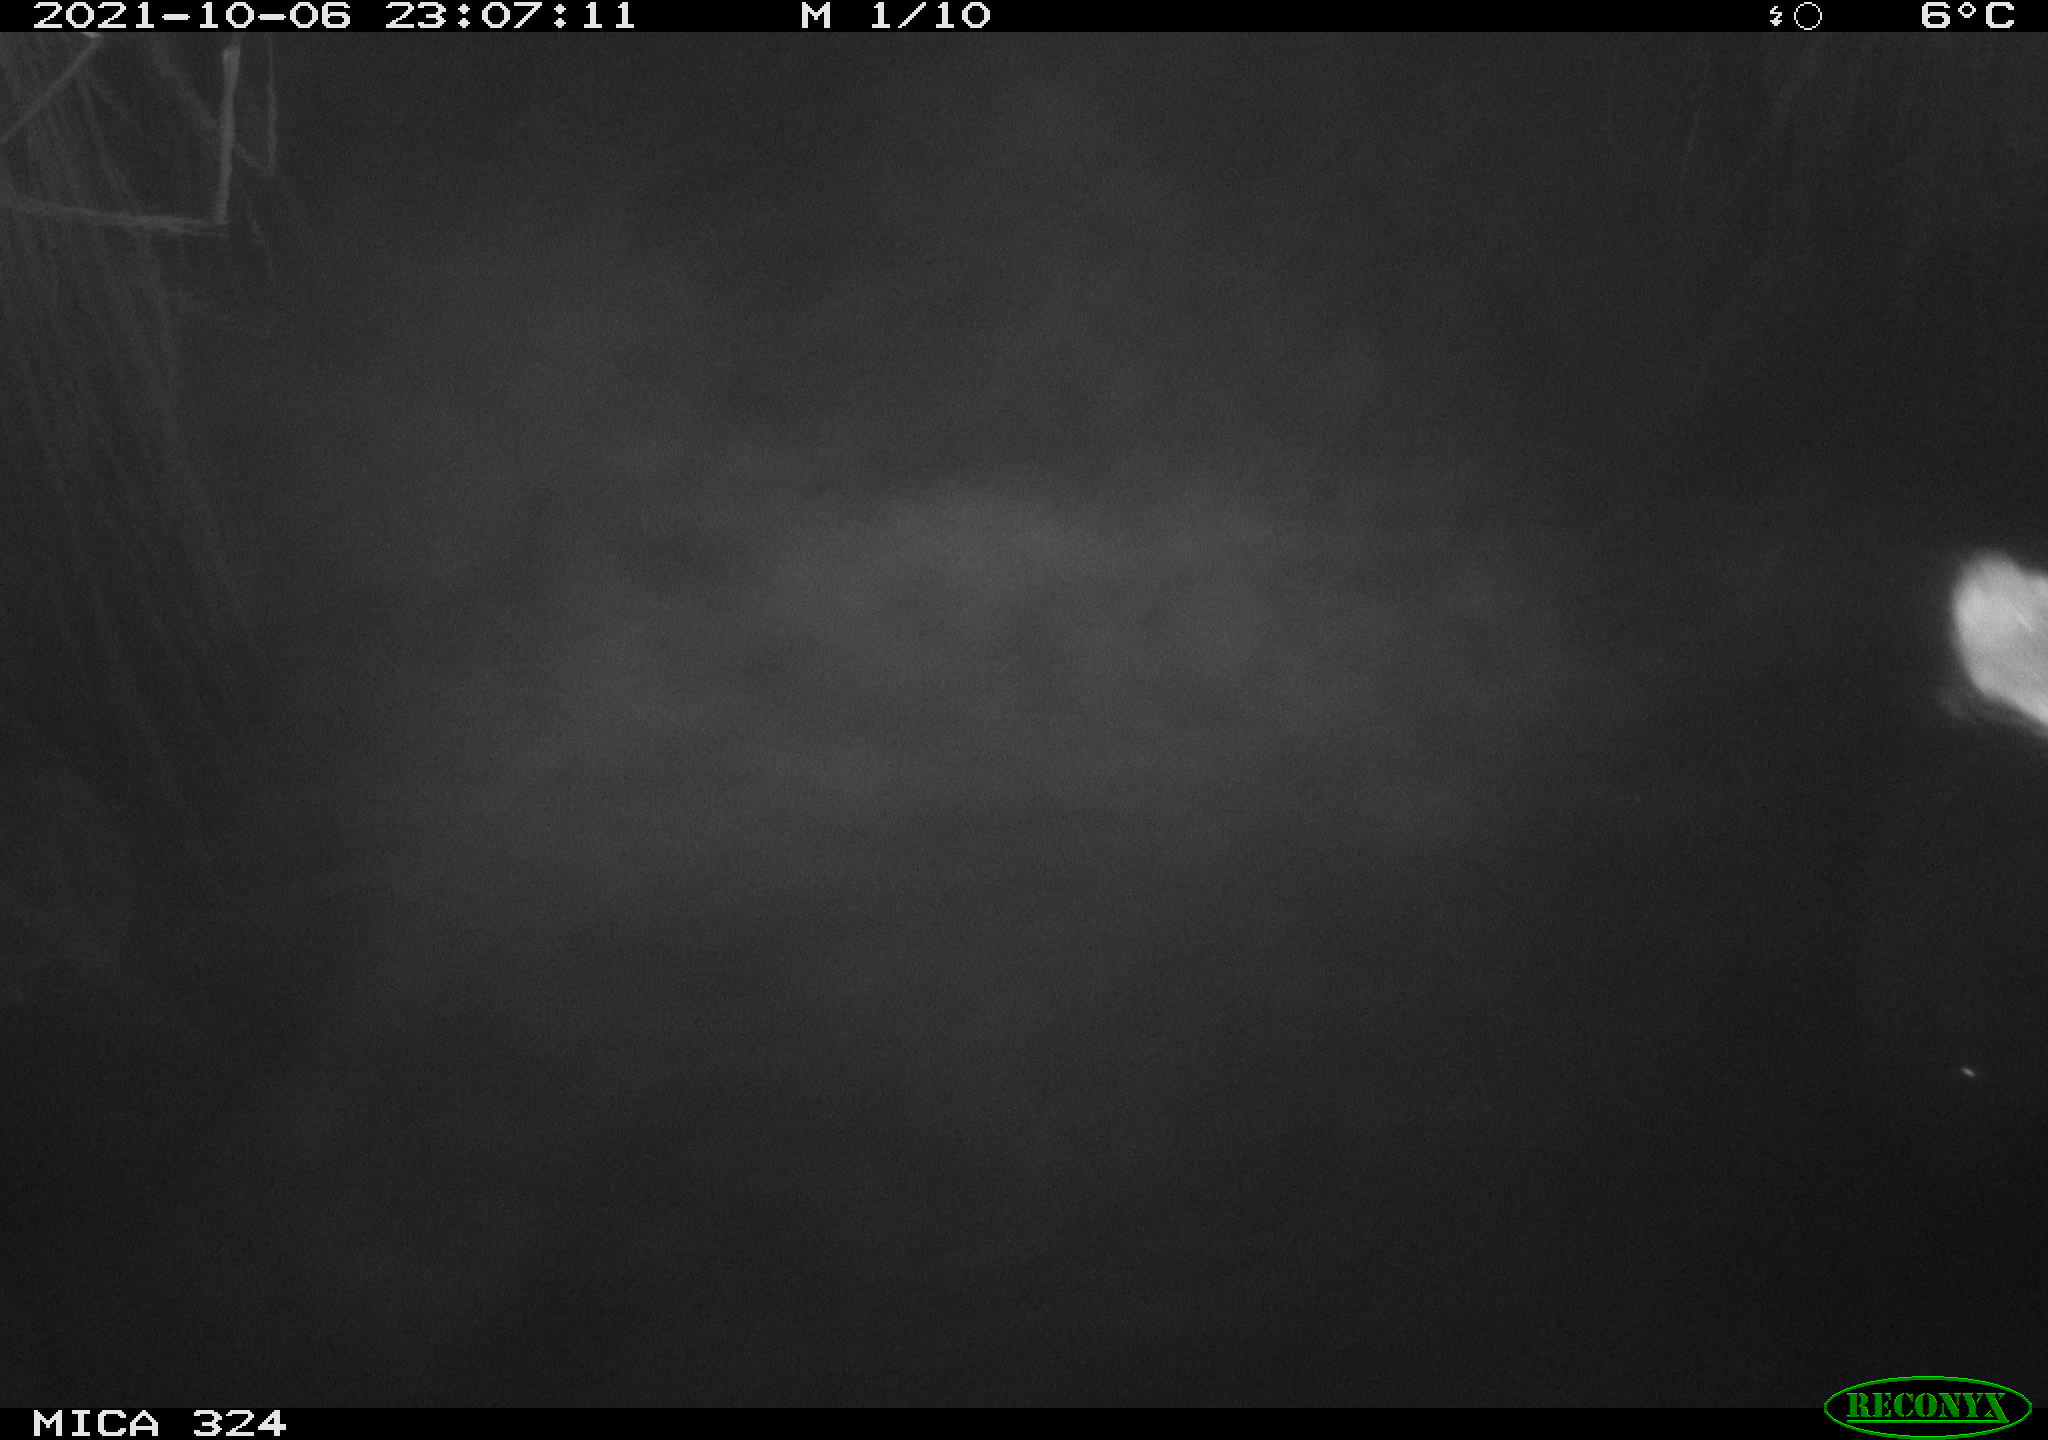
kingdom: Animalia
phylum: Chordata
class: Mammalia
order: Rodentia
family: Cricetidae
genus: Ondatra
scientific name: Ondatra zibethicus
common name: Muskrat
